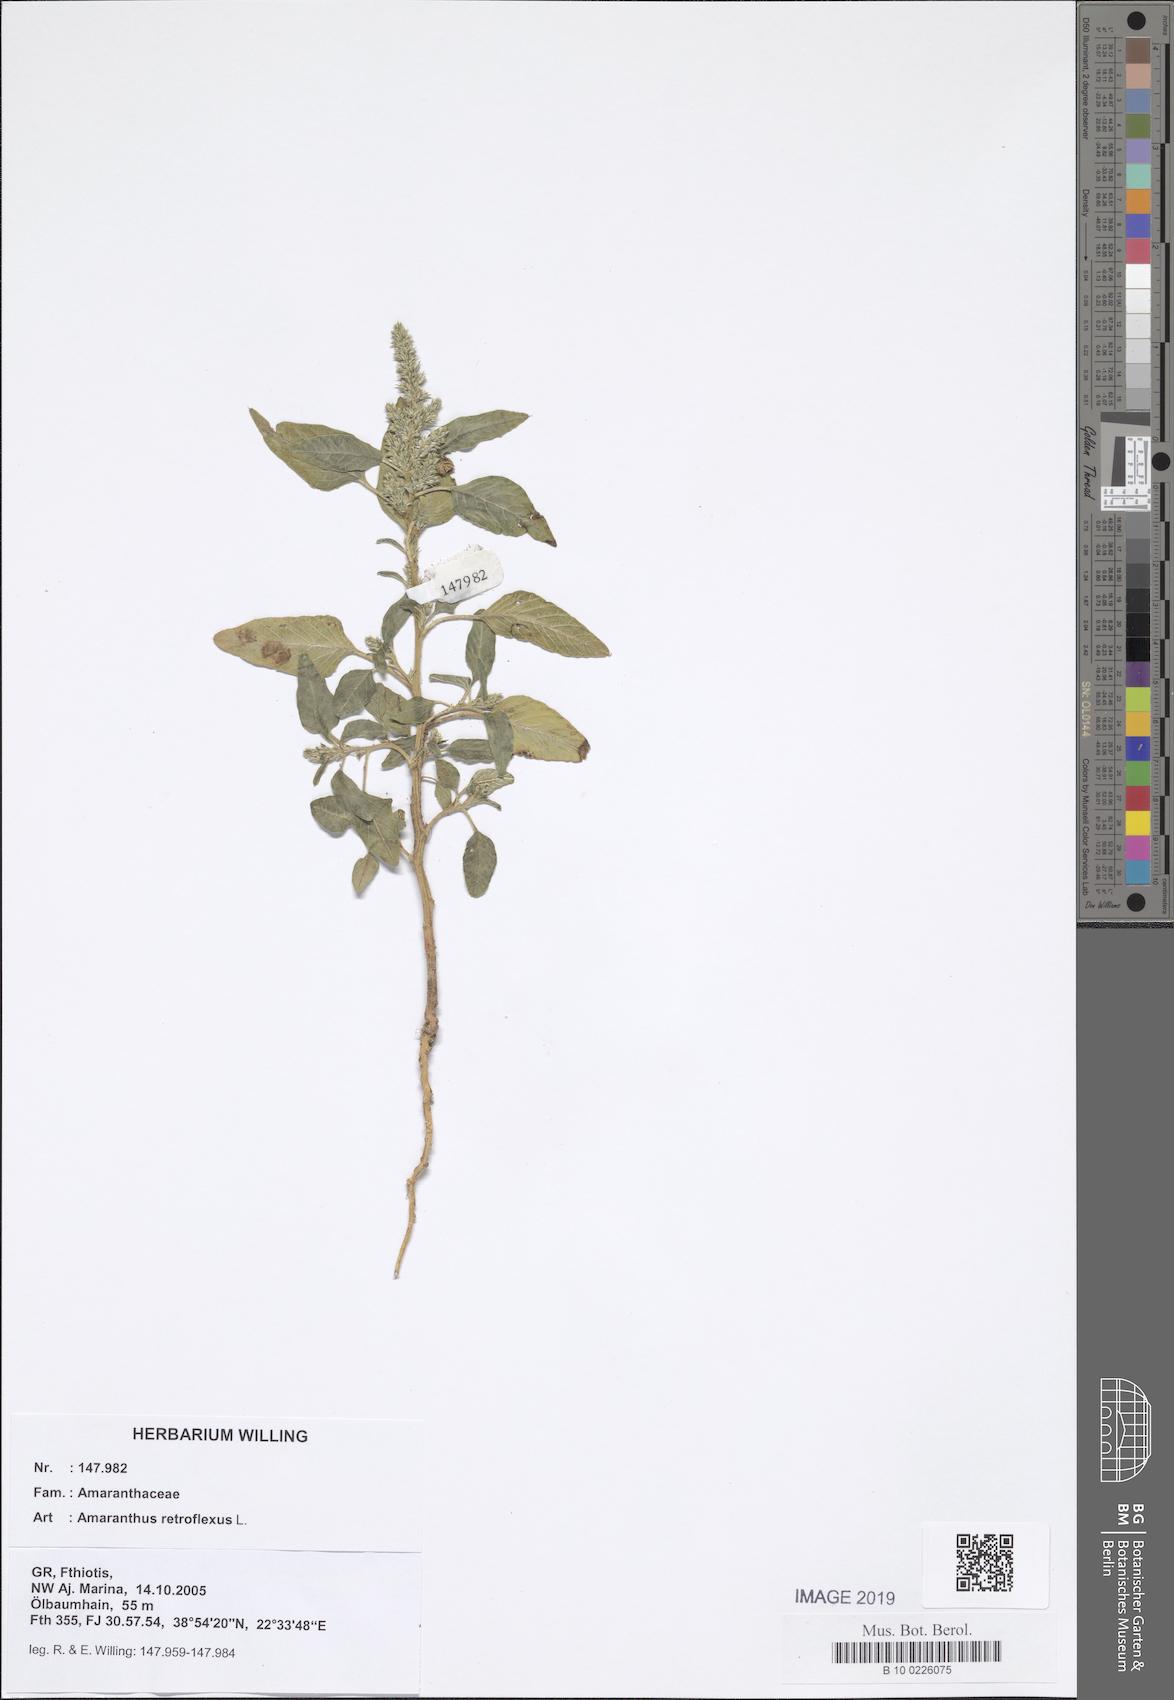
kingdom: Plantae
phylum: Tracheophyta
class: Magnoliopsida
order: Caryophyllales
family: Amaranthaceae
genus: Amaranthus
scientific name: Amaranthus retroflexus
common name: Redroot amaranth
